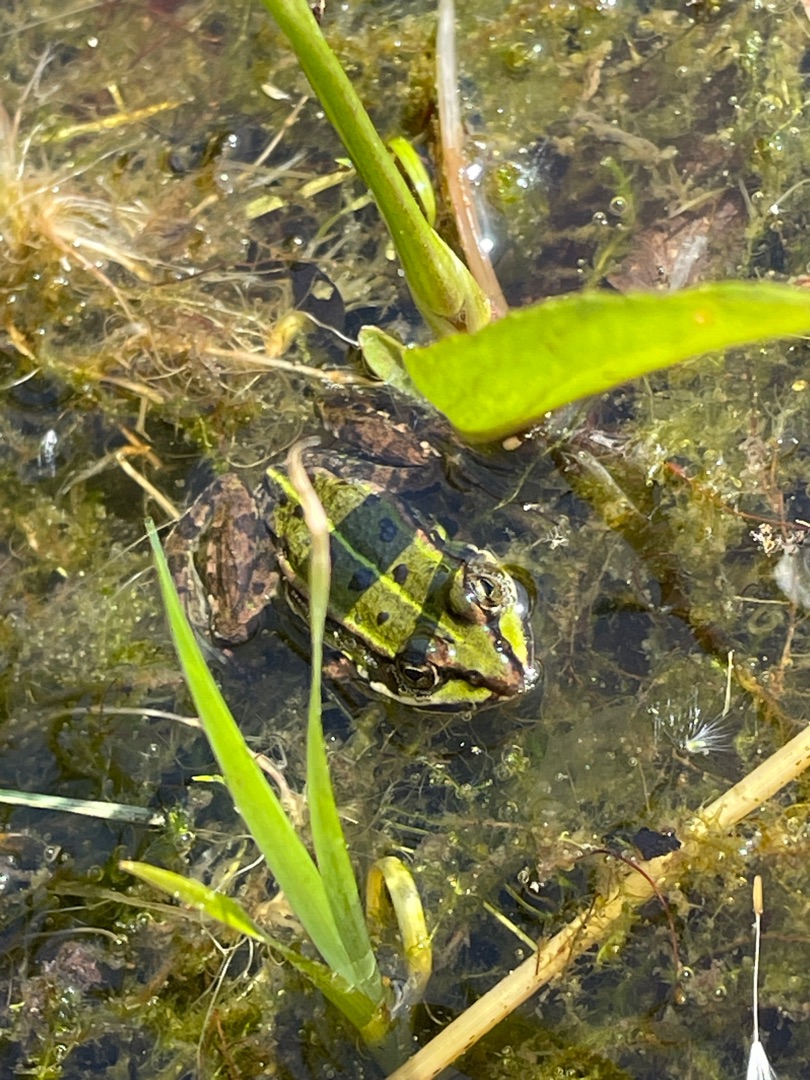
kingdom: Animalia
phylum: Chordata
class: Amphibia
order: Anura
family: Ranidae
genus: Pelophylax
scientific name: Pelophylax lessonae
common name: Grøn frø
